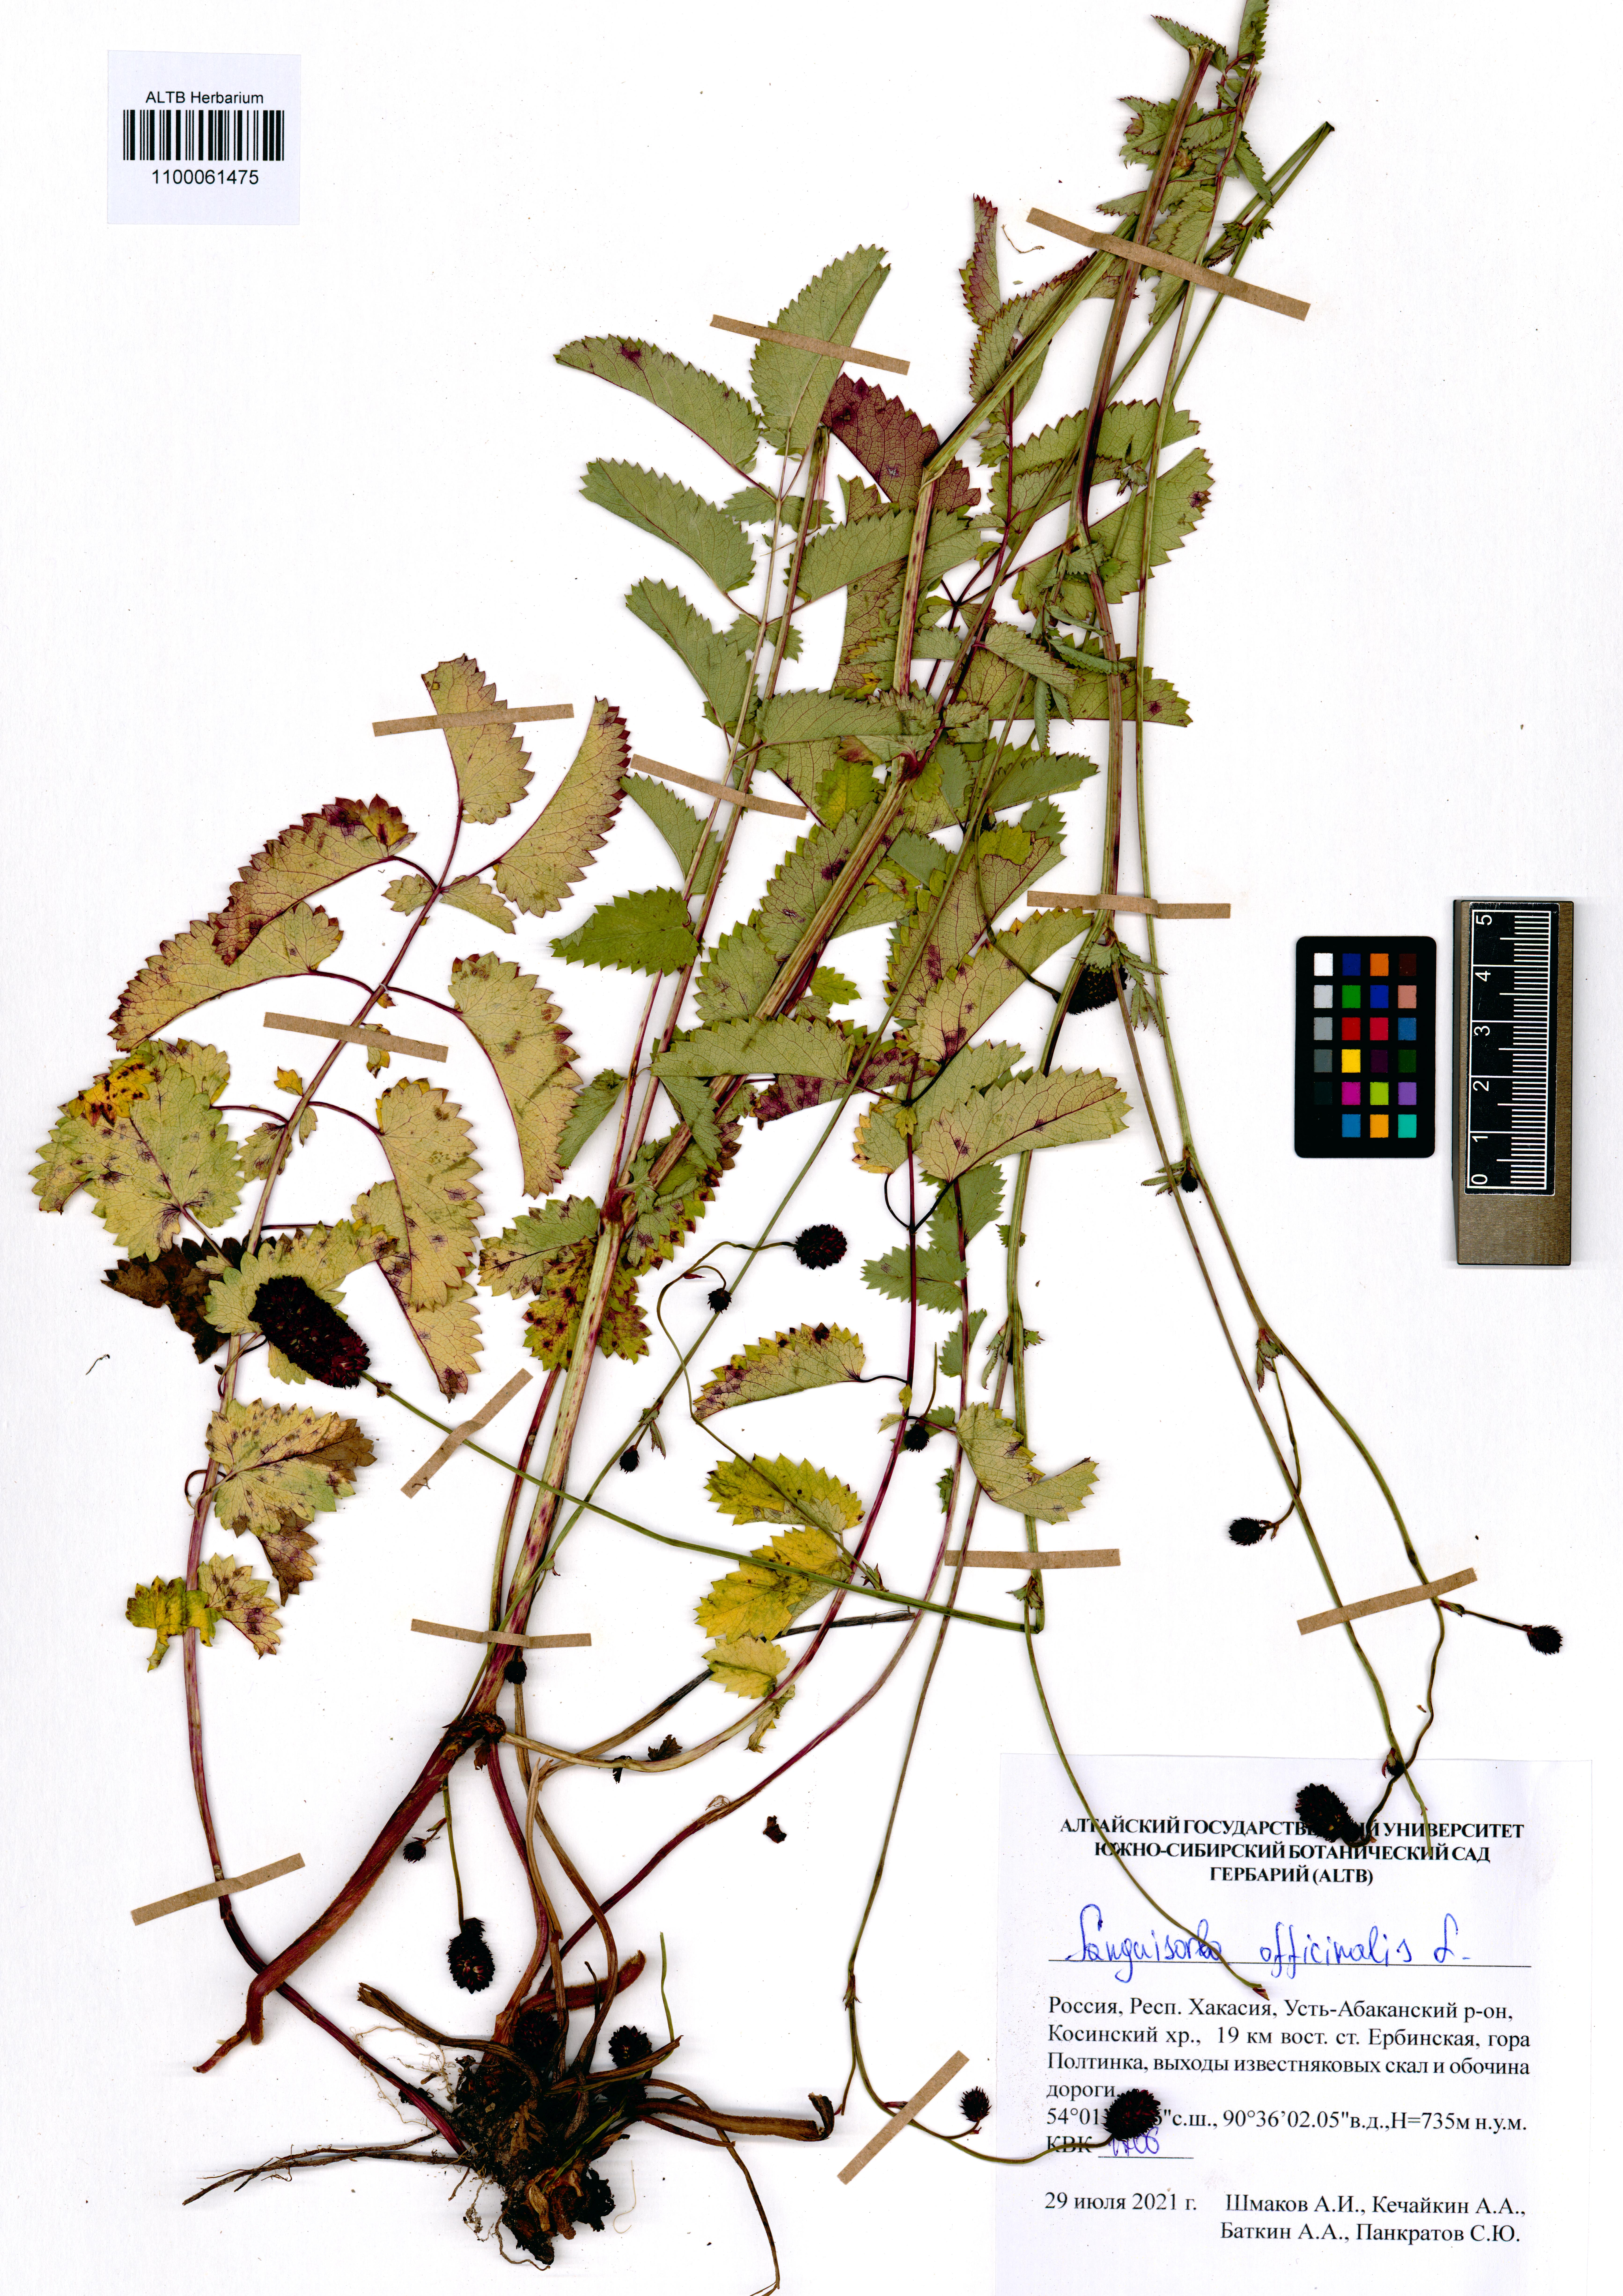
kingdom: Plantae
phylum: Tracheophyta
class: Magnoliopsida
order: Rosales
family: Rosaceae
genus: Sanguisorba
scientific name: Sanguisorba officinalis
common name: Great burnet
